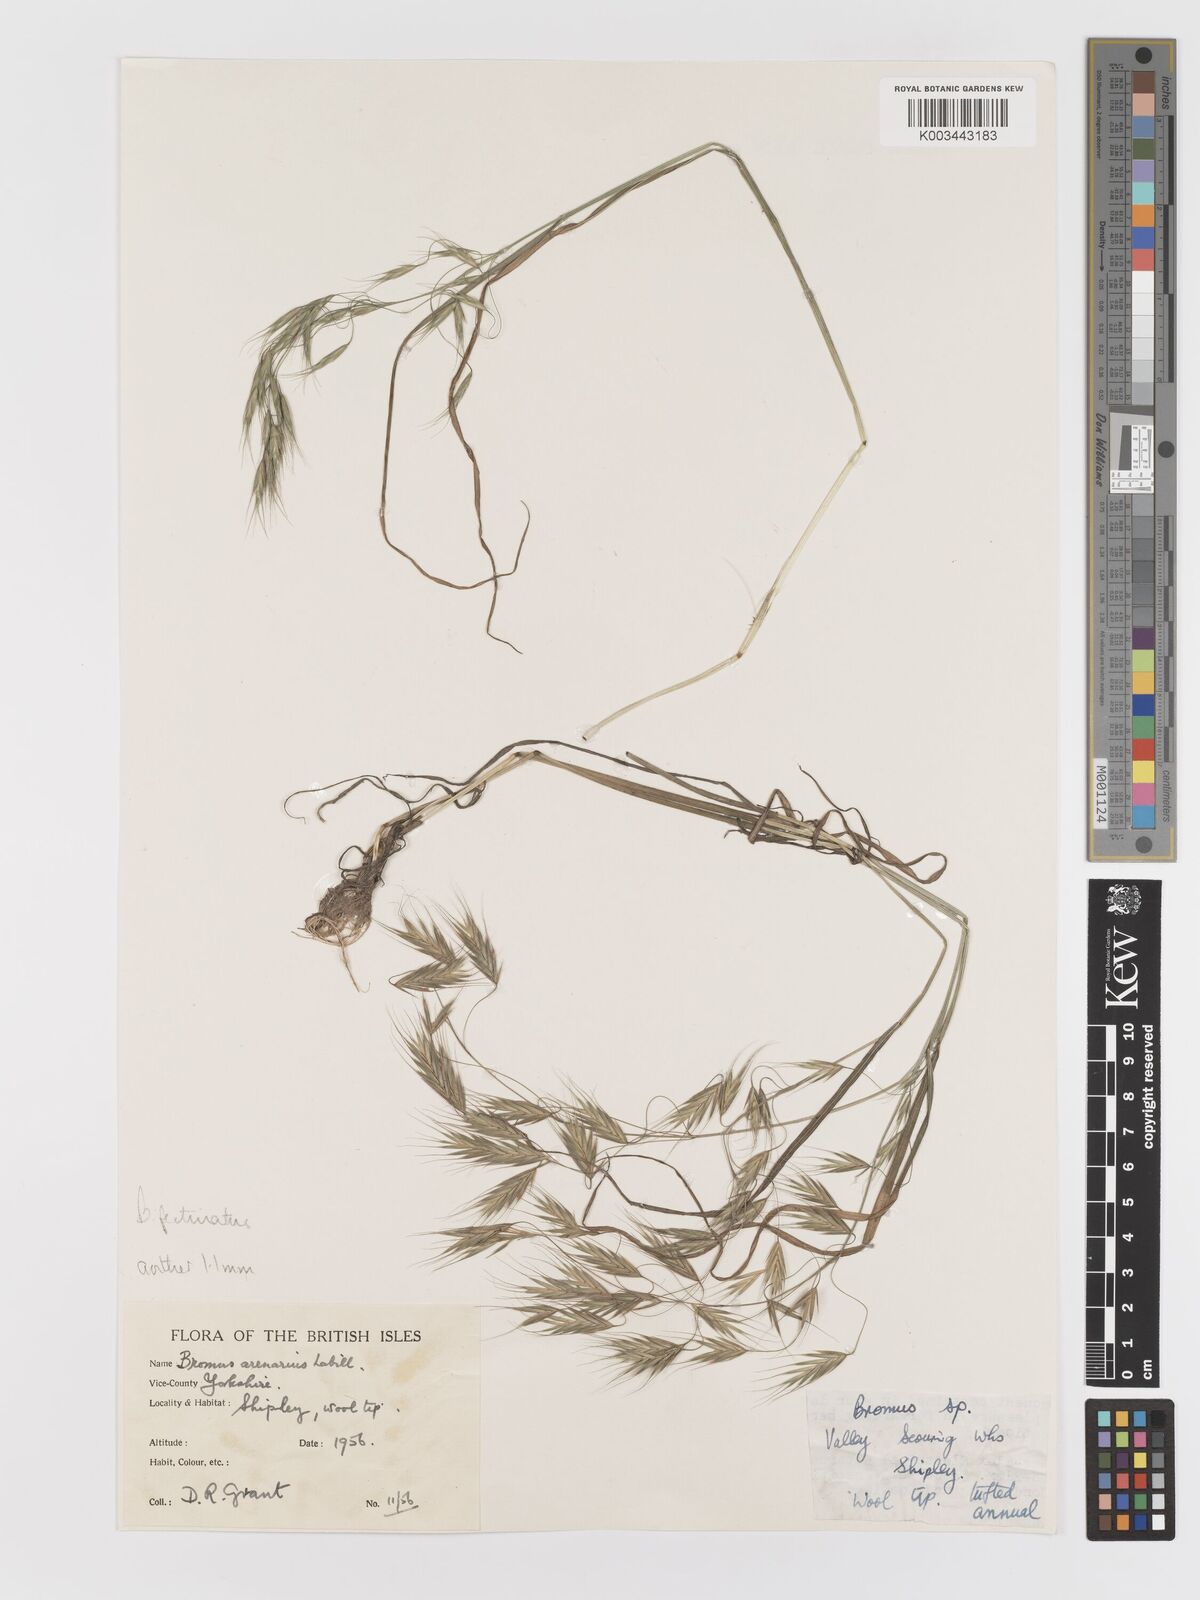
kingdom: Plantae
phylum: Tracheophyta
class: Liliopsida
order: Poales
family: Poaceae
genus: Bromus
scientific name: Bromus pectinatus
